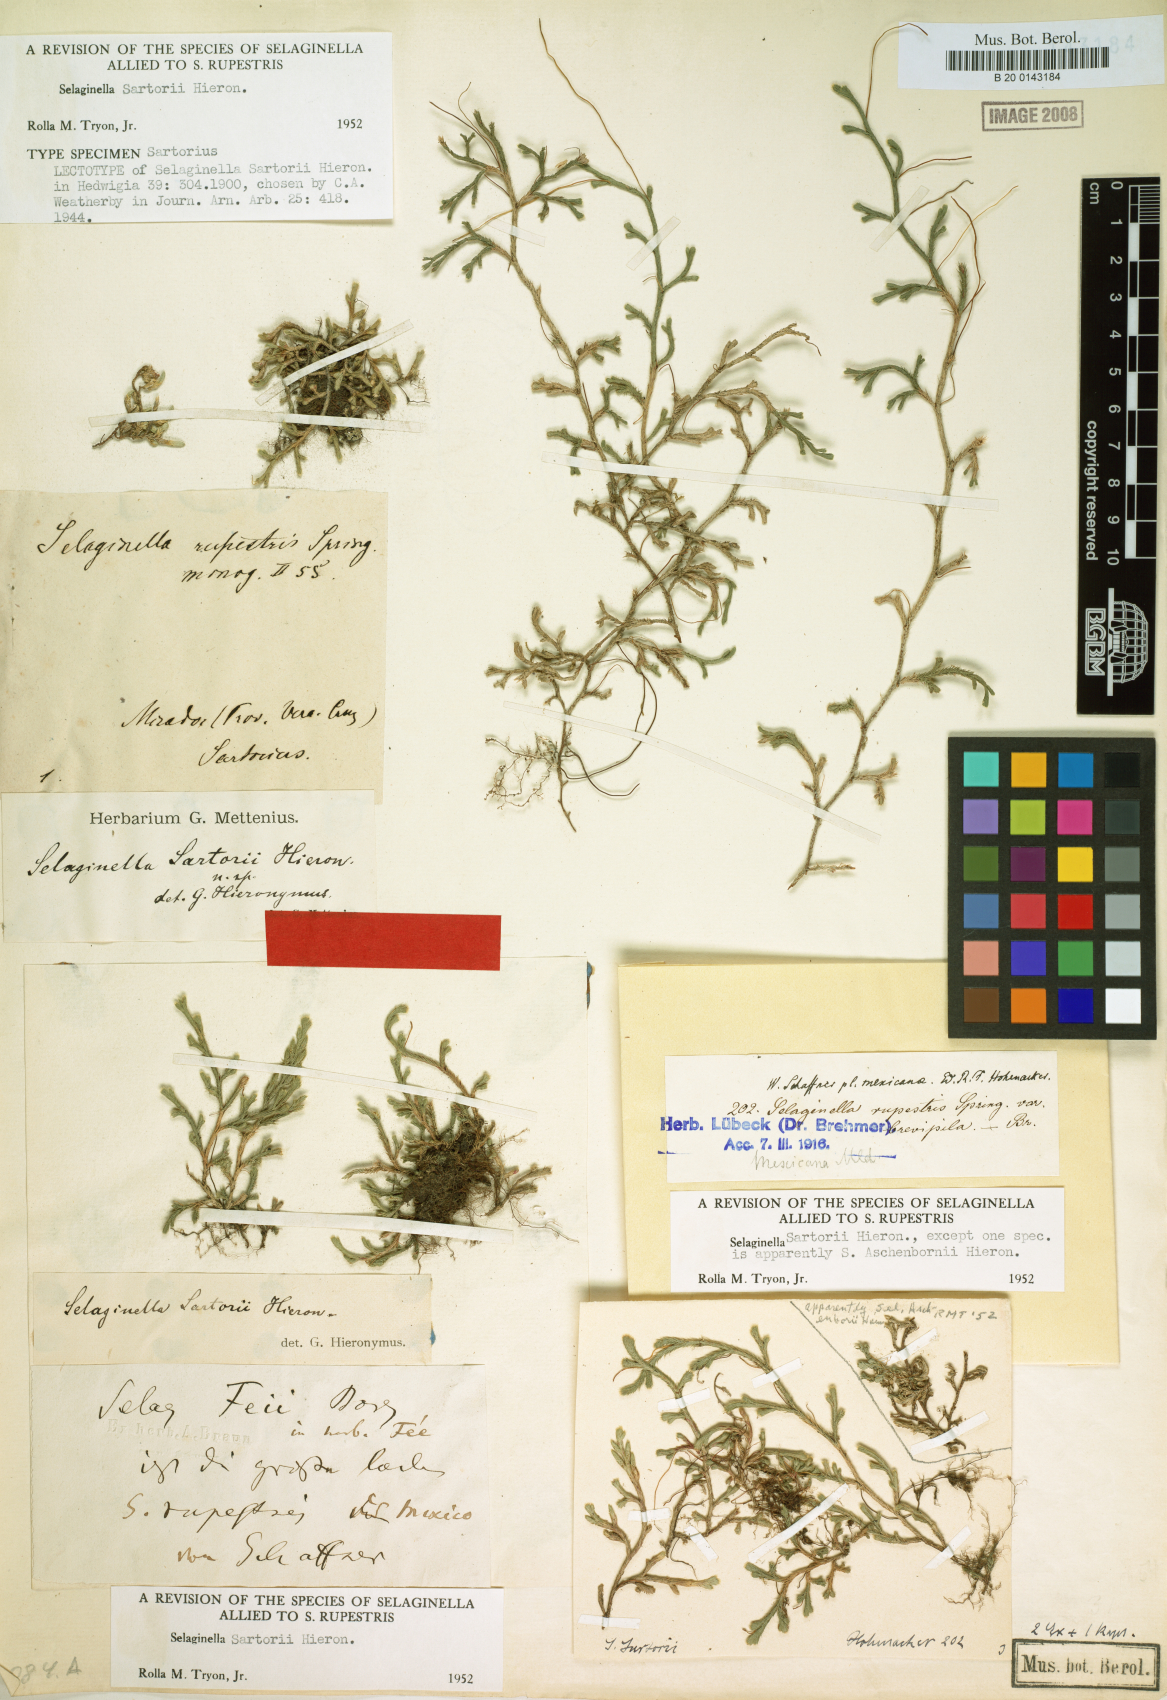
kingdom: Plantae
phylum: Tracheophyta
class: Lycopodiopsida
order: Selaginellales
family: Selaginellaceae
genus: Selaginella
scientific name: Selaginella sartorii
